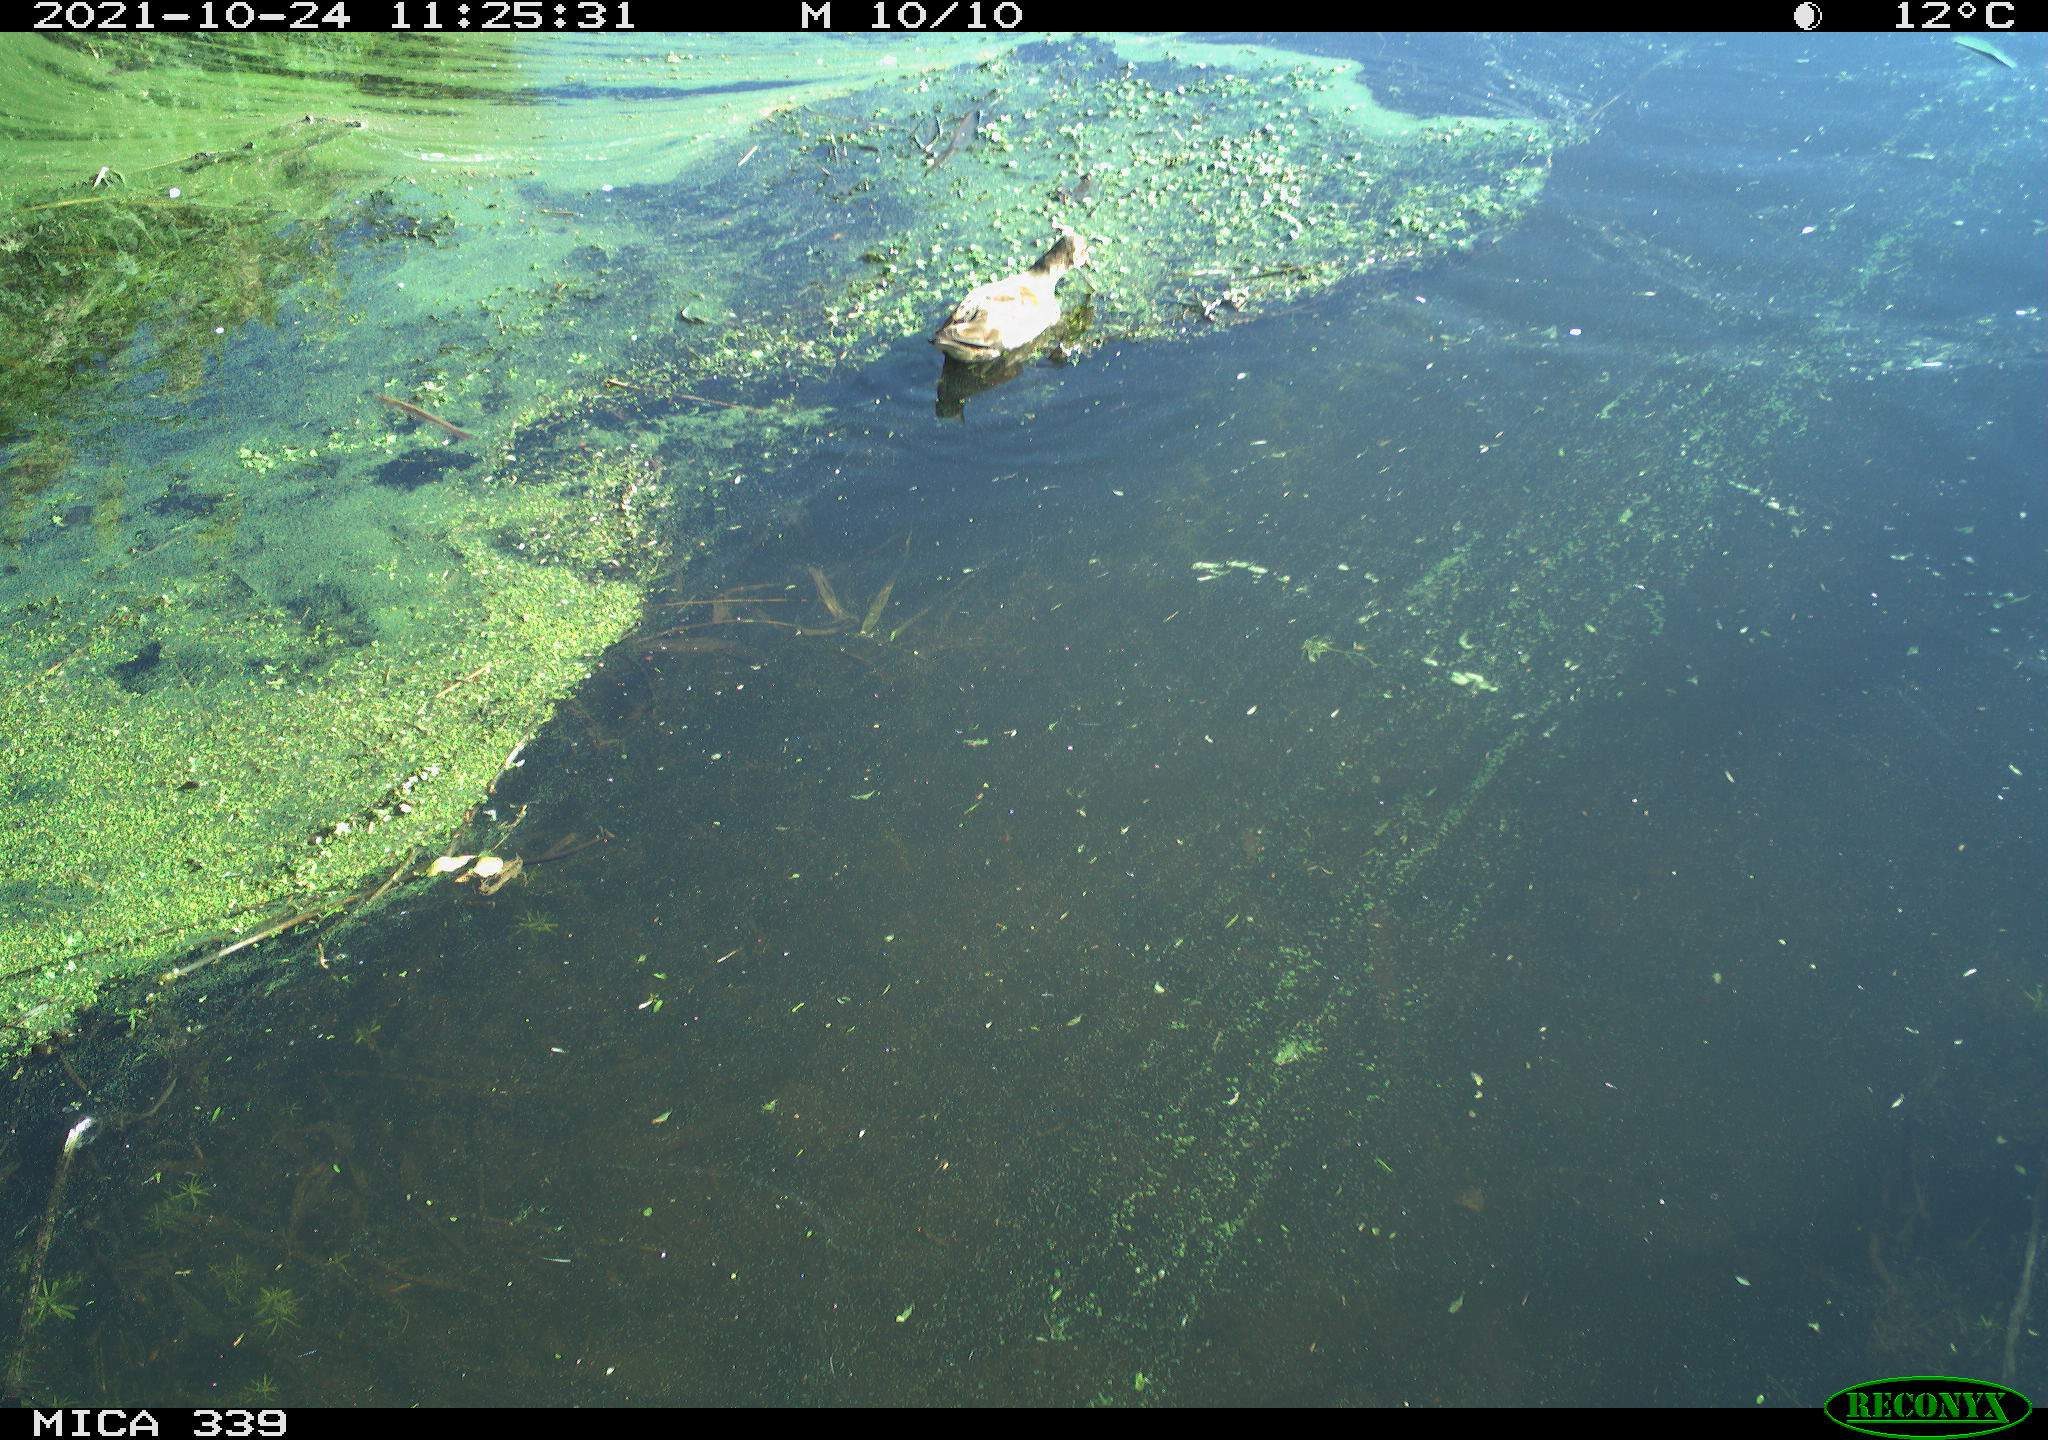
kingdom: Animalia
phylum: Chordata
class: Aves
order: Gruiformes
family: Rallidae
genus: Gallinula
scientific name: Gallinula chloropus
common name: Common moorhen
